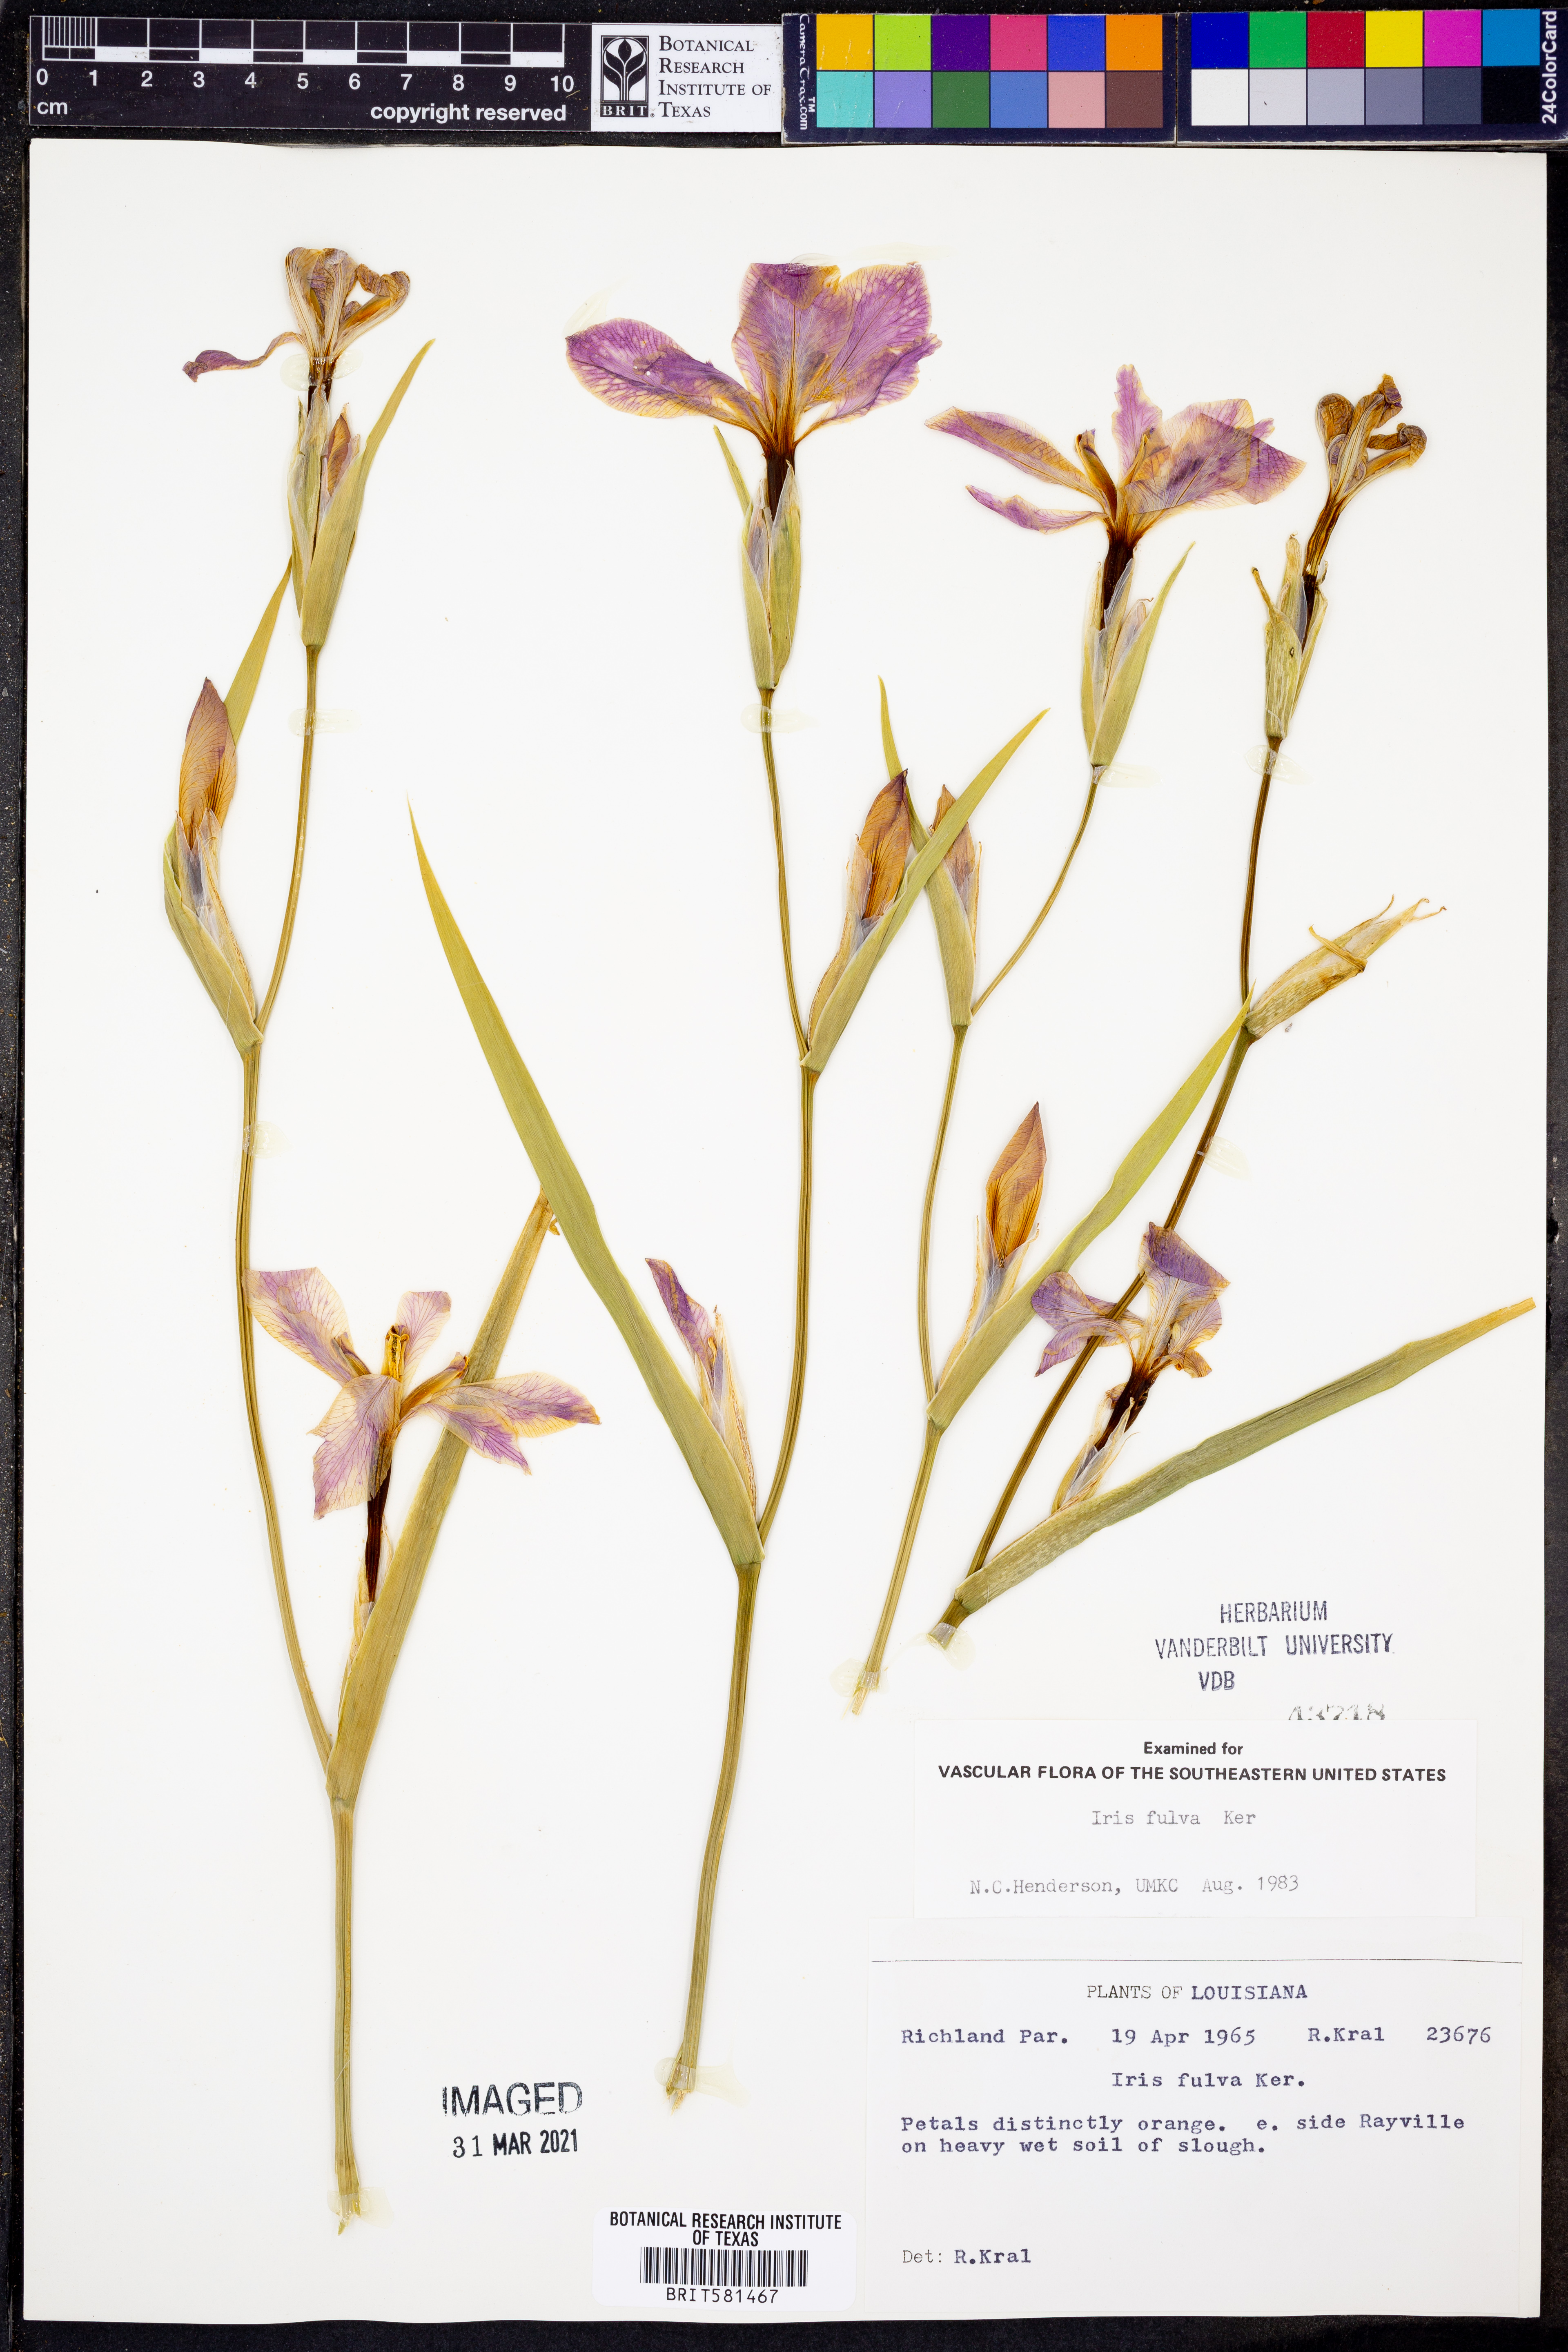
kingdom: Plantae
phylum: Tracheophyta
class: Liliopsida
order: Asparagales
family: Iridaceae
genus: Iris
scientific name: Iris fulva
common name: Copper iris
